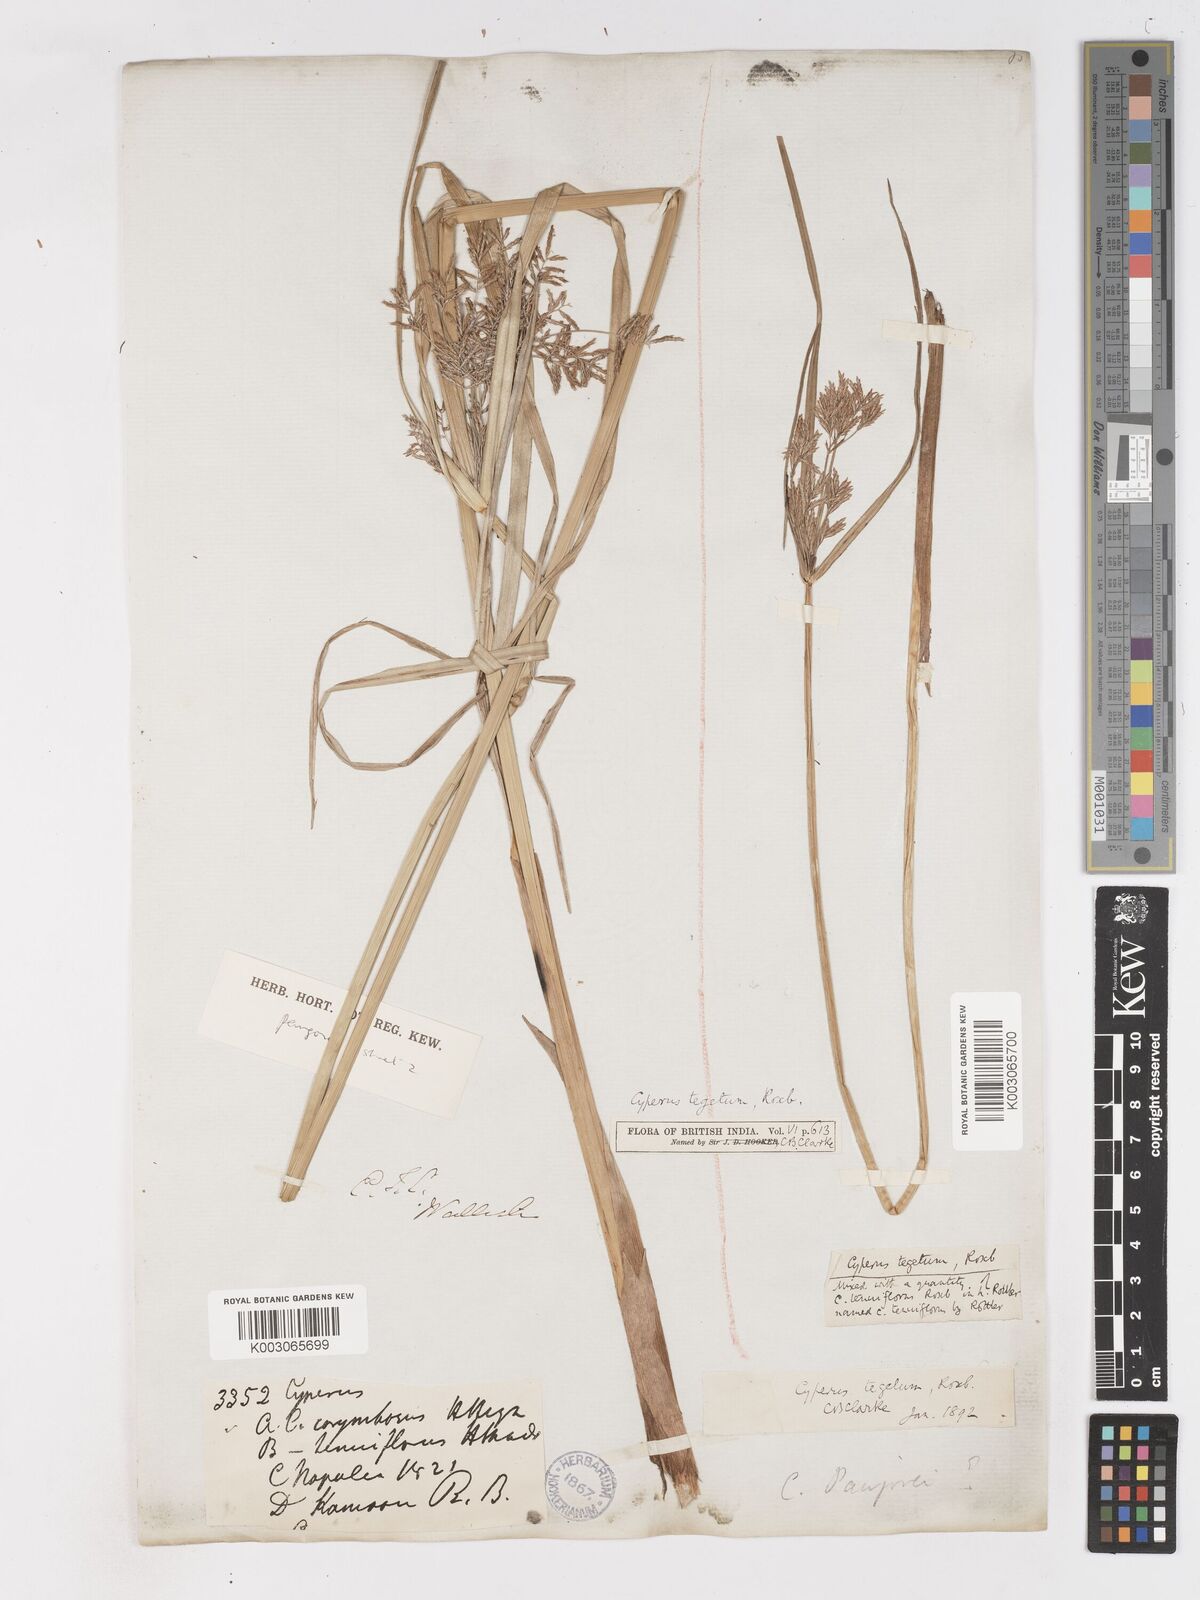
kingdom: Plantae
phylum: Tracheophyta
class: Liliopsida
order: Poales
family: Cyperaceae
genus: Cyperus
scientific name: Cyperus pangorei
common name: Mat sedge
